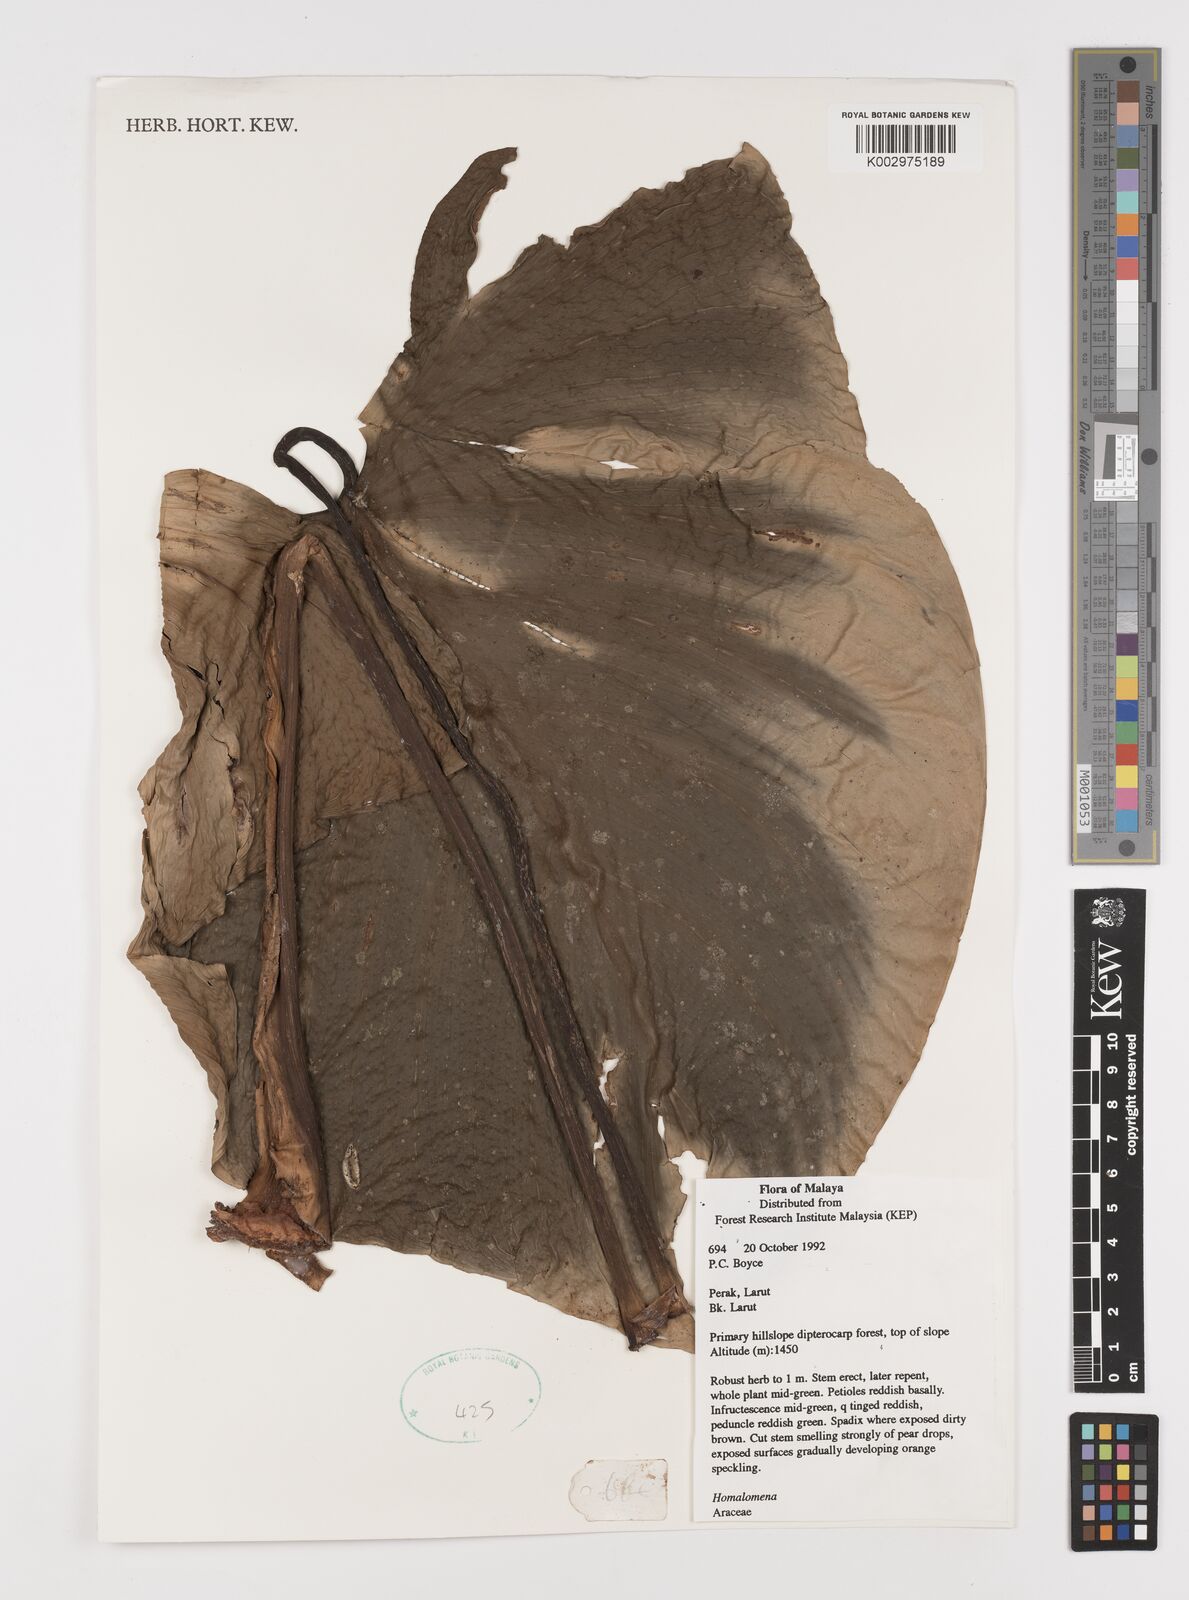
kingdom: Plantae
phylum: Tracheophyta
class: Liliopsida
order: Alismatales
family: Araceae
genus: Homalomena
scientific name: Homalomena
